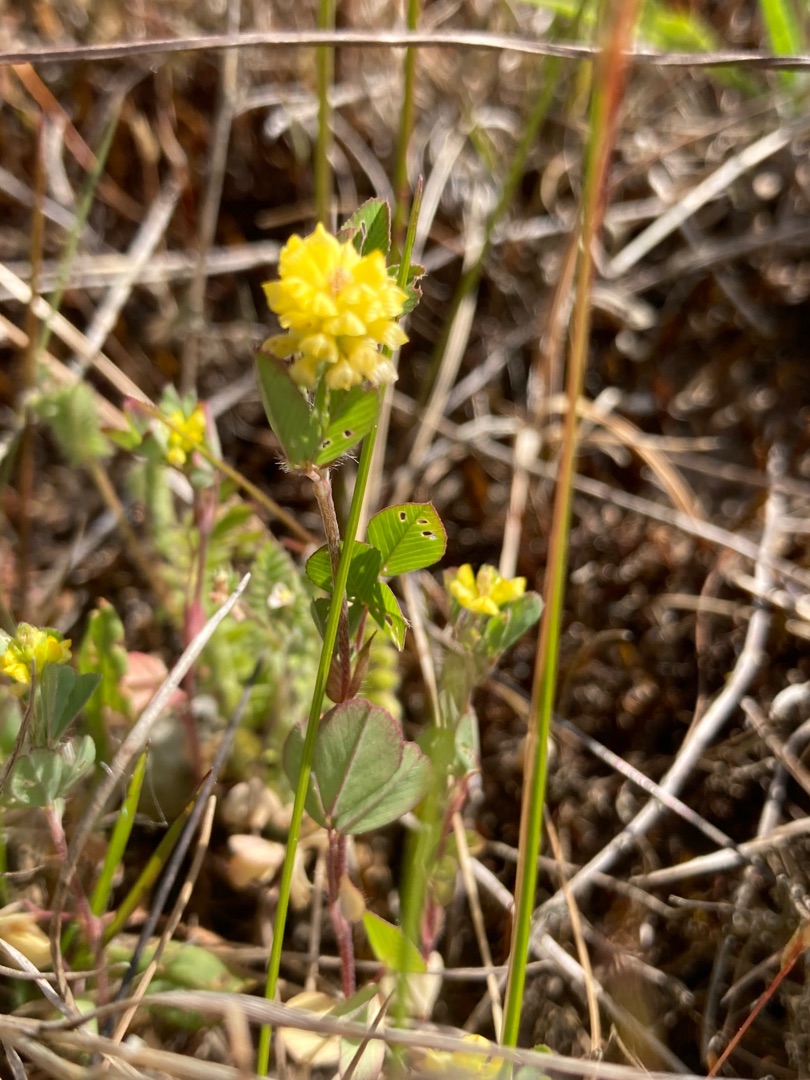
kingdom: Plantae
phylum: Tracheophyta
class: Magnoliopsida
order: Fabales
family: Fabaceae
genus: Trifolium
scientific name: Trifolium campestre
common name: Gul kløver
